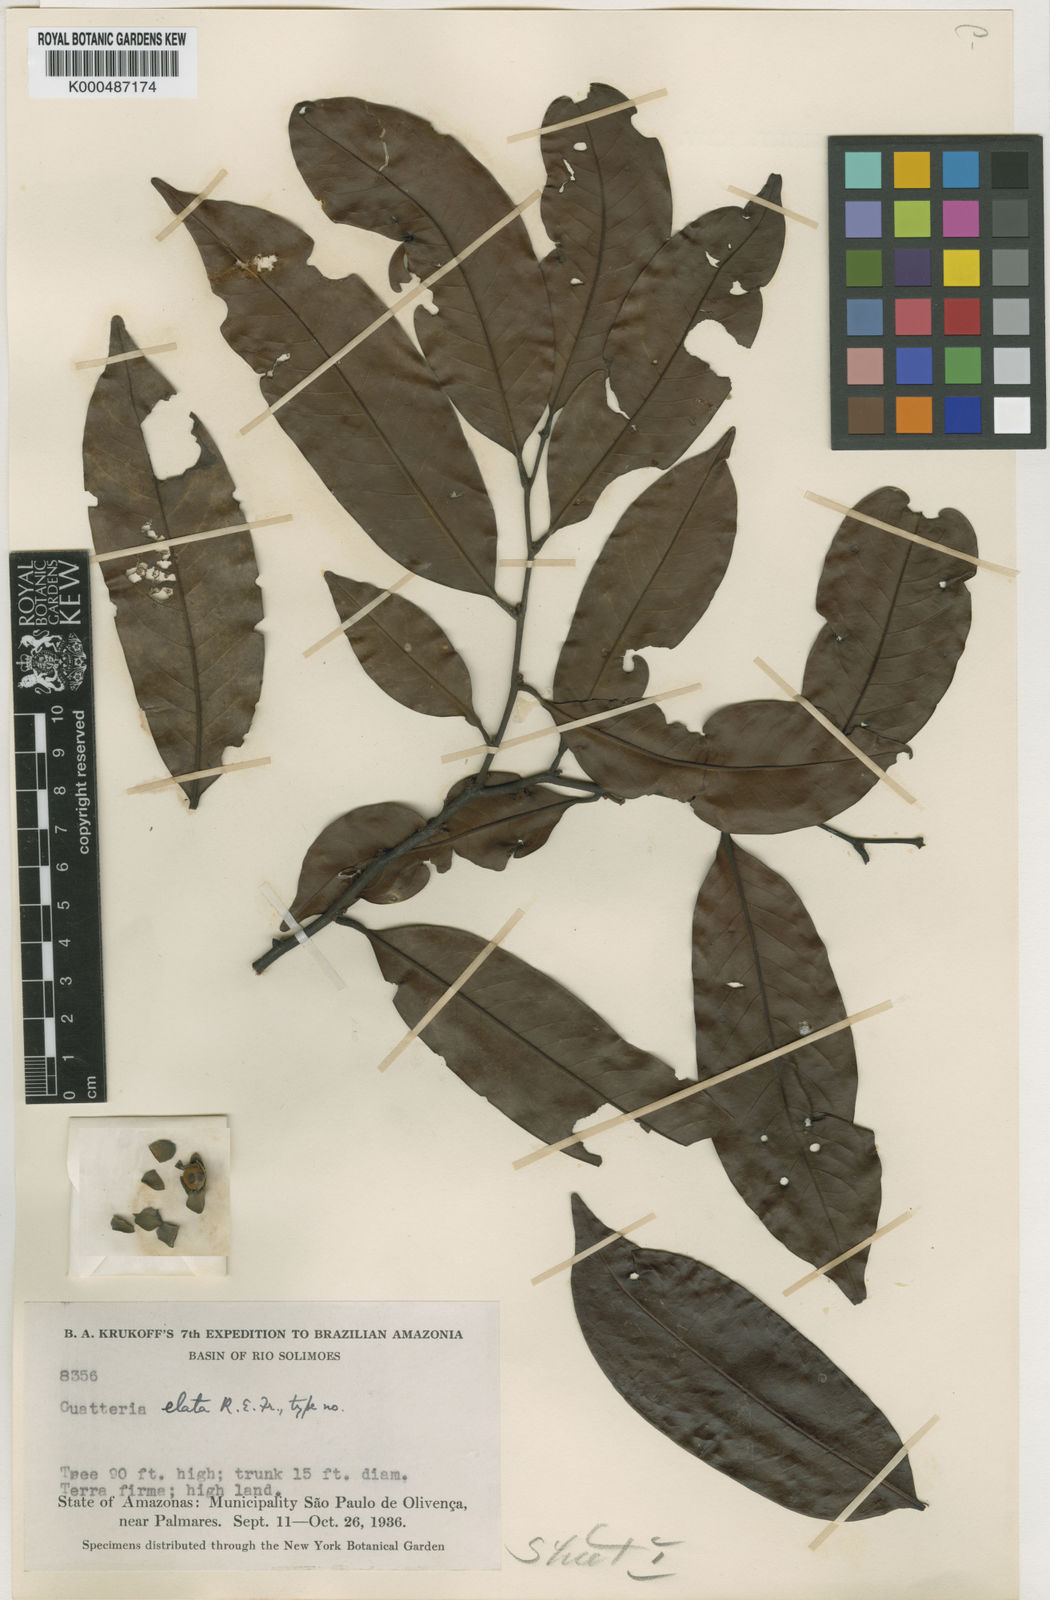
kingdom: Plantae
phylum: Tracheophyta
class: Magnoliopsida
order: Magnoliales
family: Annonaceae
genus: Guatteria
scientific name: Guatteria elata
